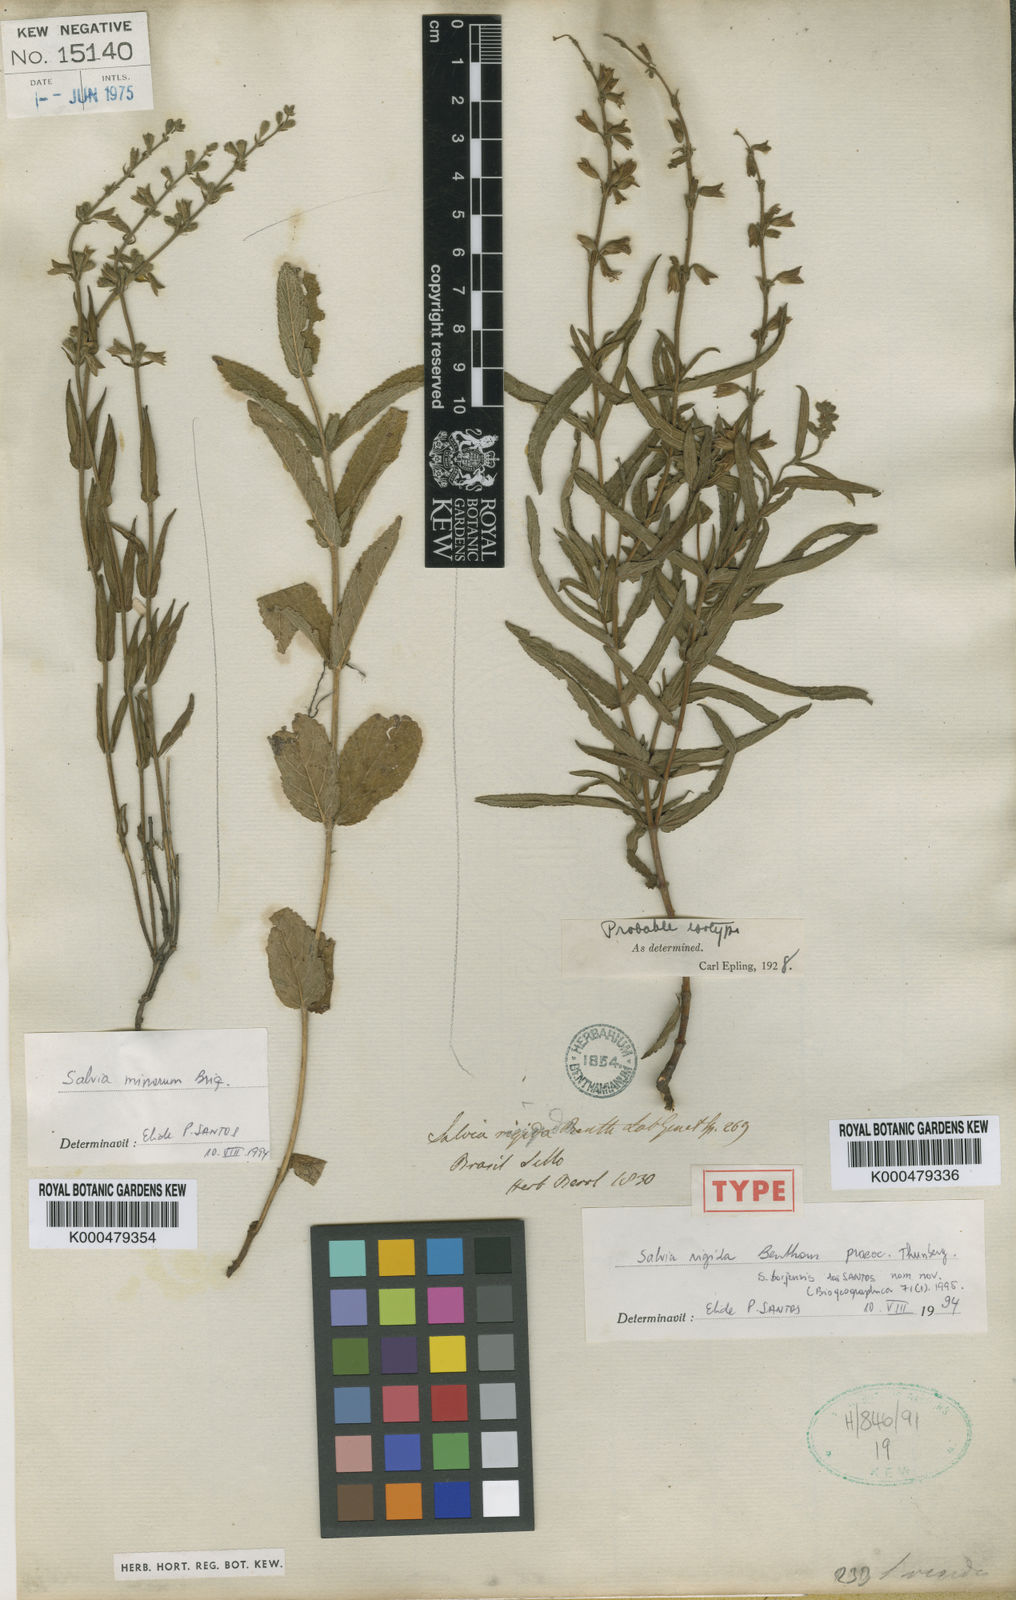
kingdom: Plantae
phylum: Tracheophyta
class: Magnoliopsida
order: Lamiales
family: Lamiaceae
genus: Salvia
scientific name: Salvia nervosa
